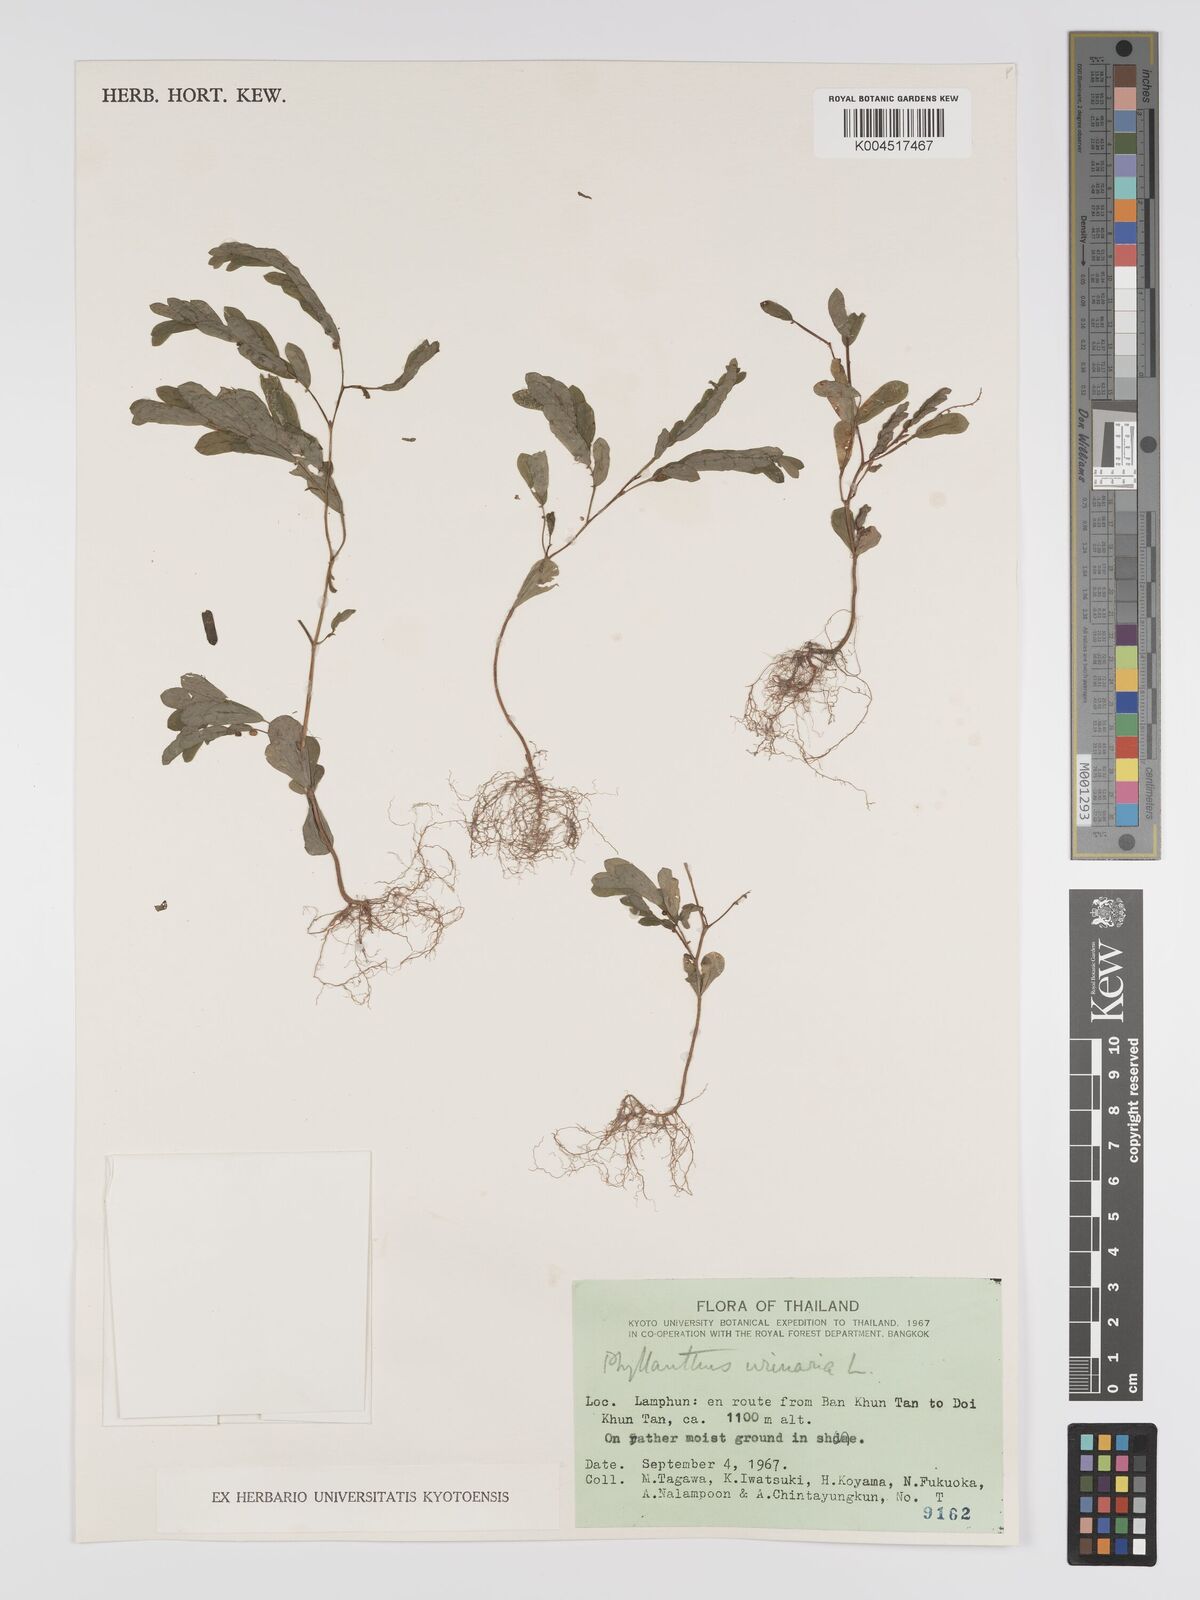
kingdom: Plantae
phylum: Tracheophyta
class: Magnoliopsida
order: Malpighiales
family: Phyllanthaceae
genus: Phyllanthus
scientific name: Phyllanthus urinaria
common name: Chamber bitter
